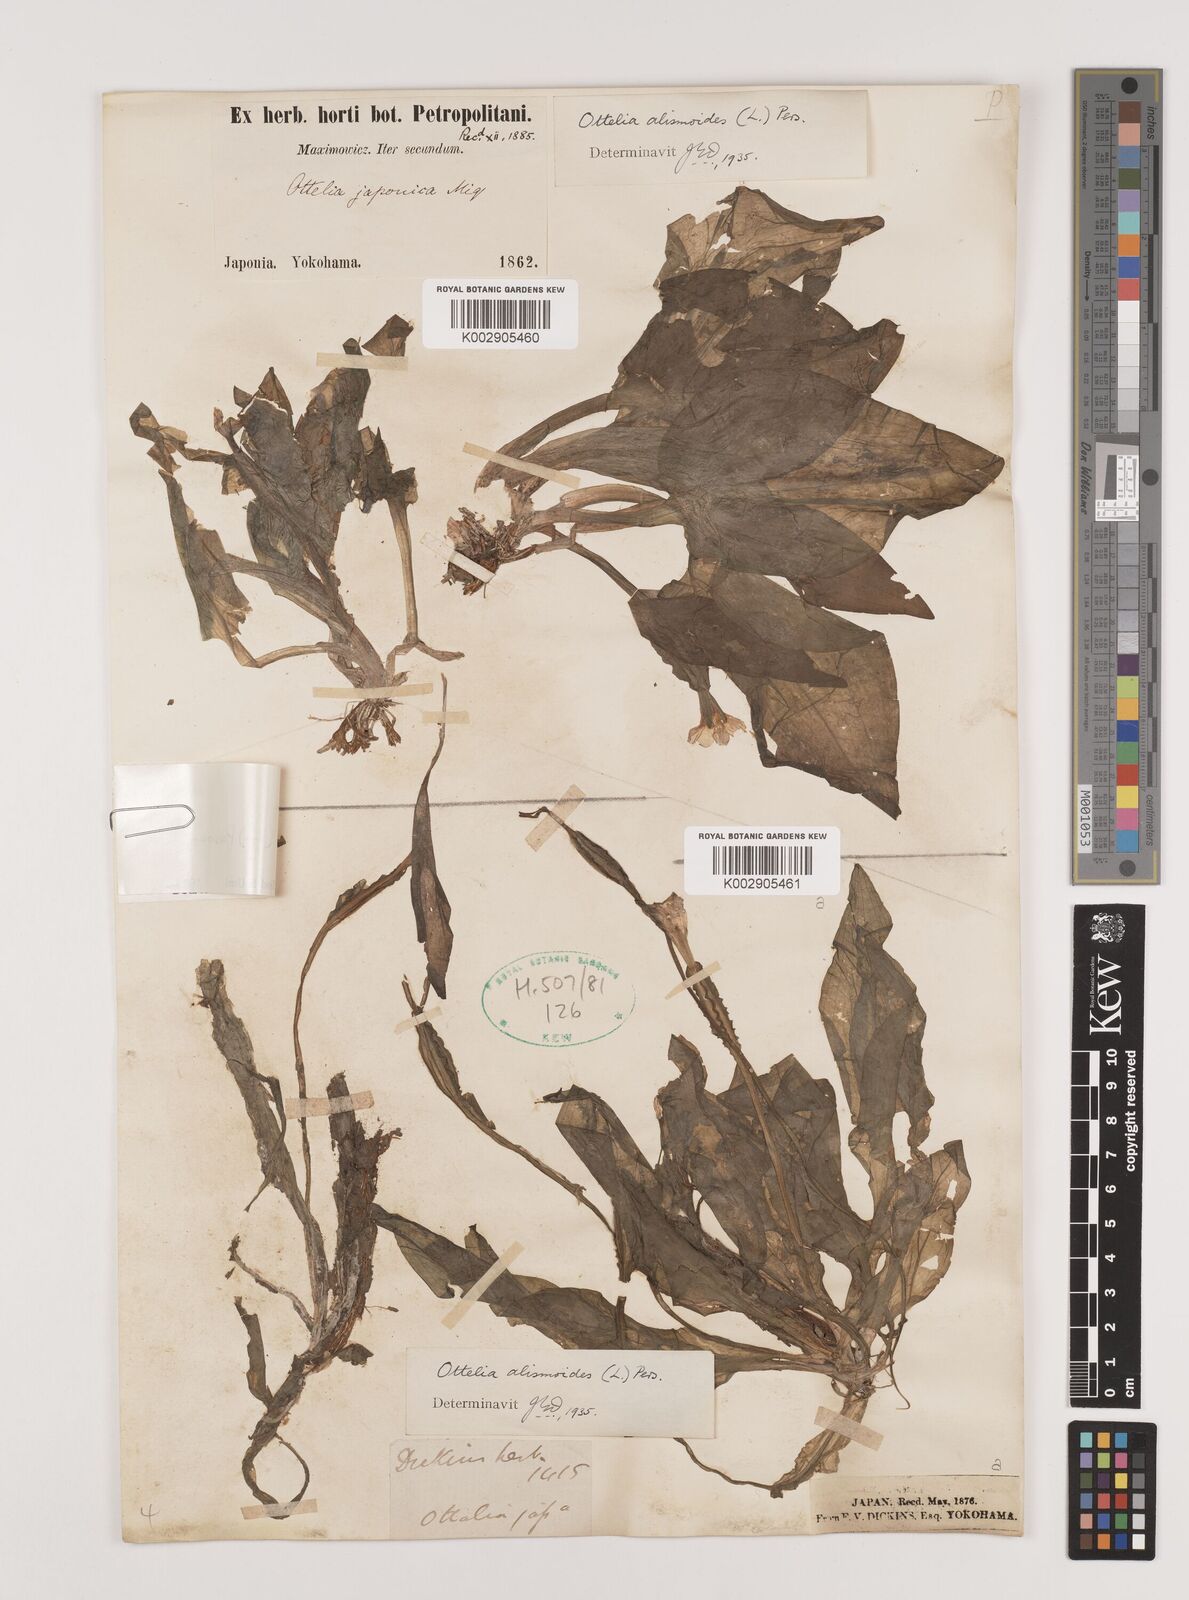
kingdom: Plantae
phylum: Tracheophyta
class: Liliopsida
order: Alismatales
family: Hydrocharitaceae
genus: Ottelia
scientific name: Ottelia alismoides
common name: Duck-lettuce
